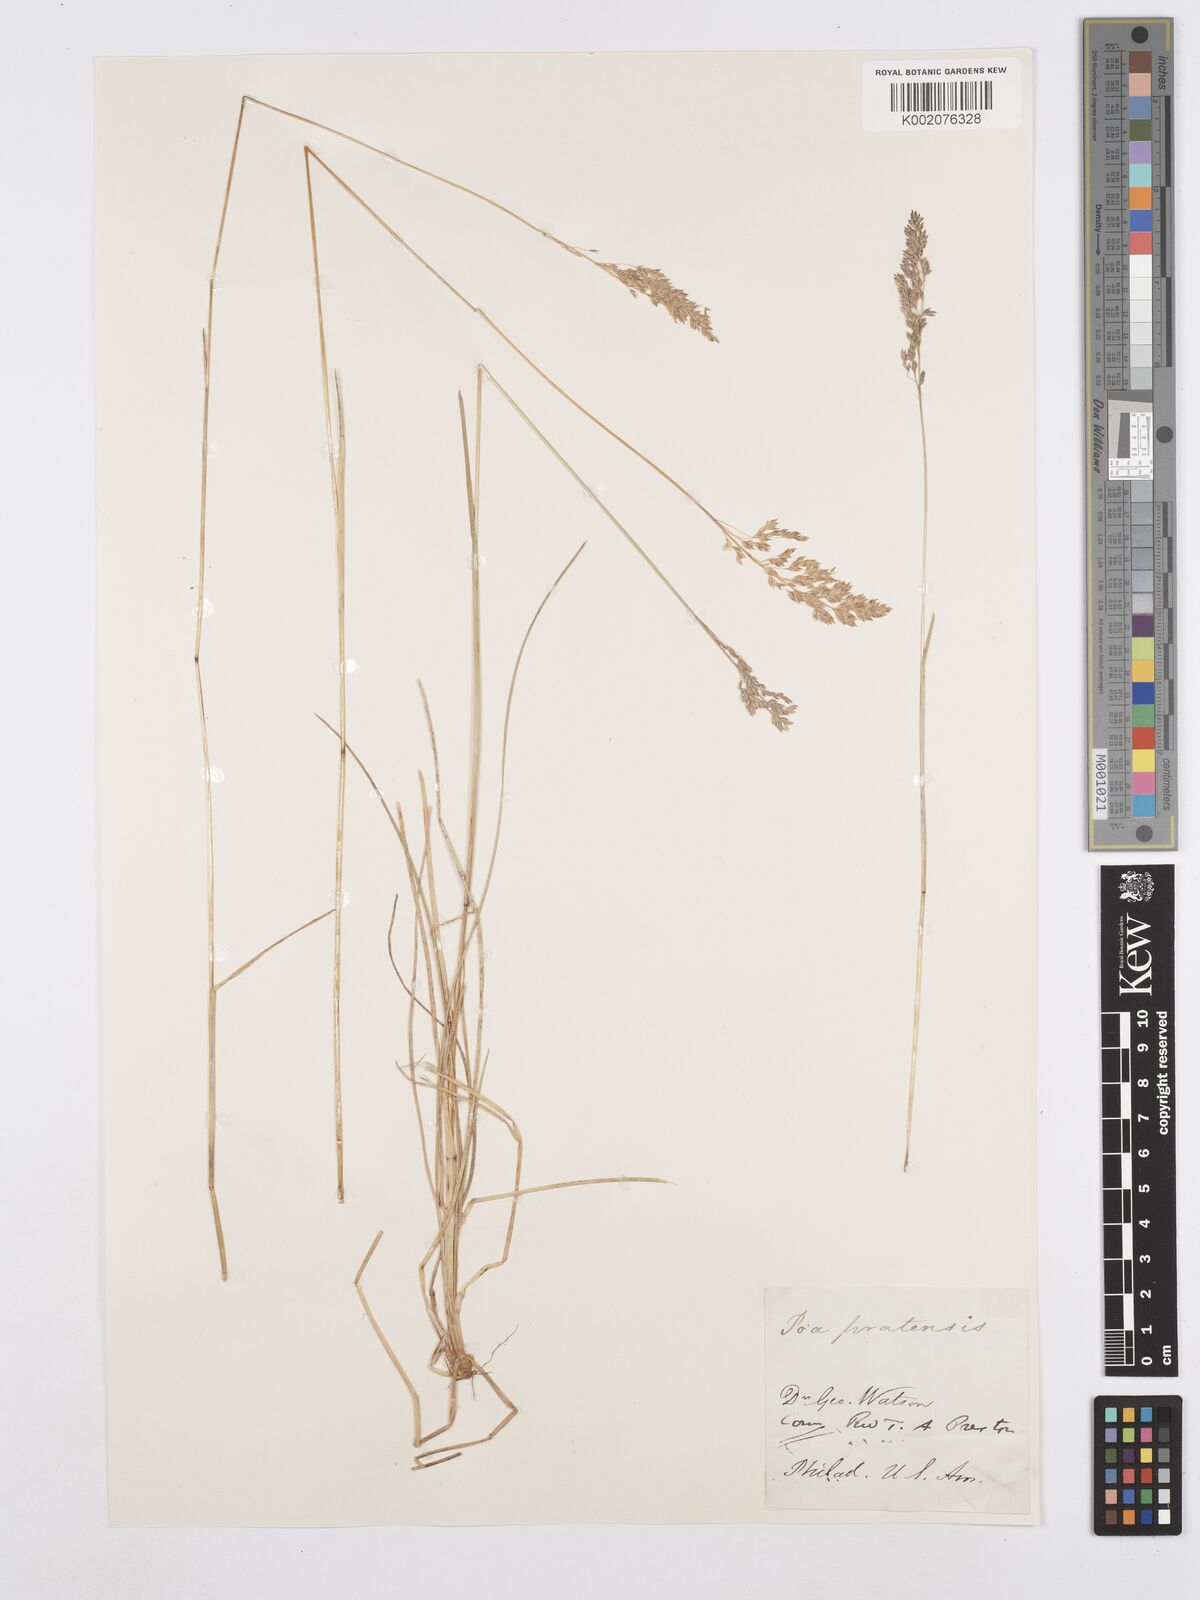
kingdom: Plantae
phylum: Tracheophyta
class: Liliopsida
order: Poales
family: Poaceae
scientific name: Poaceae
